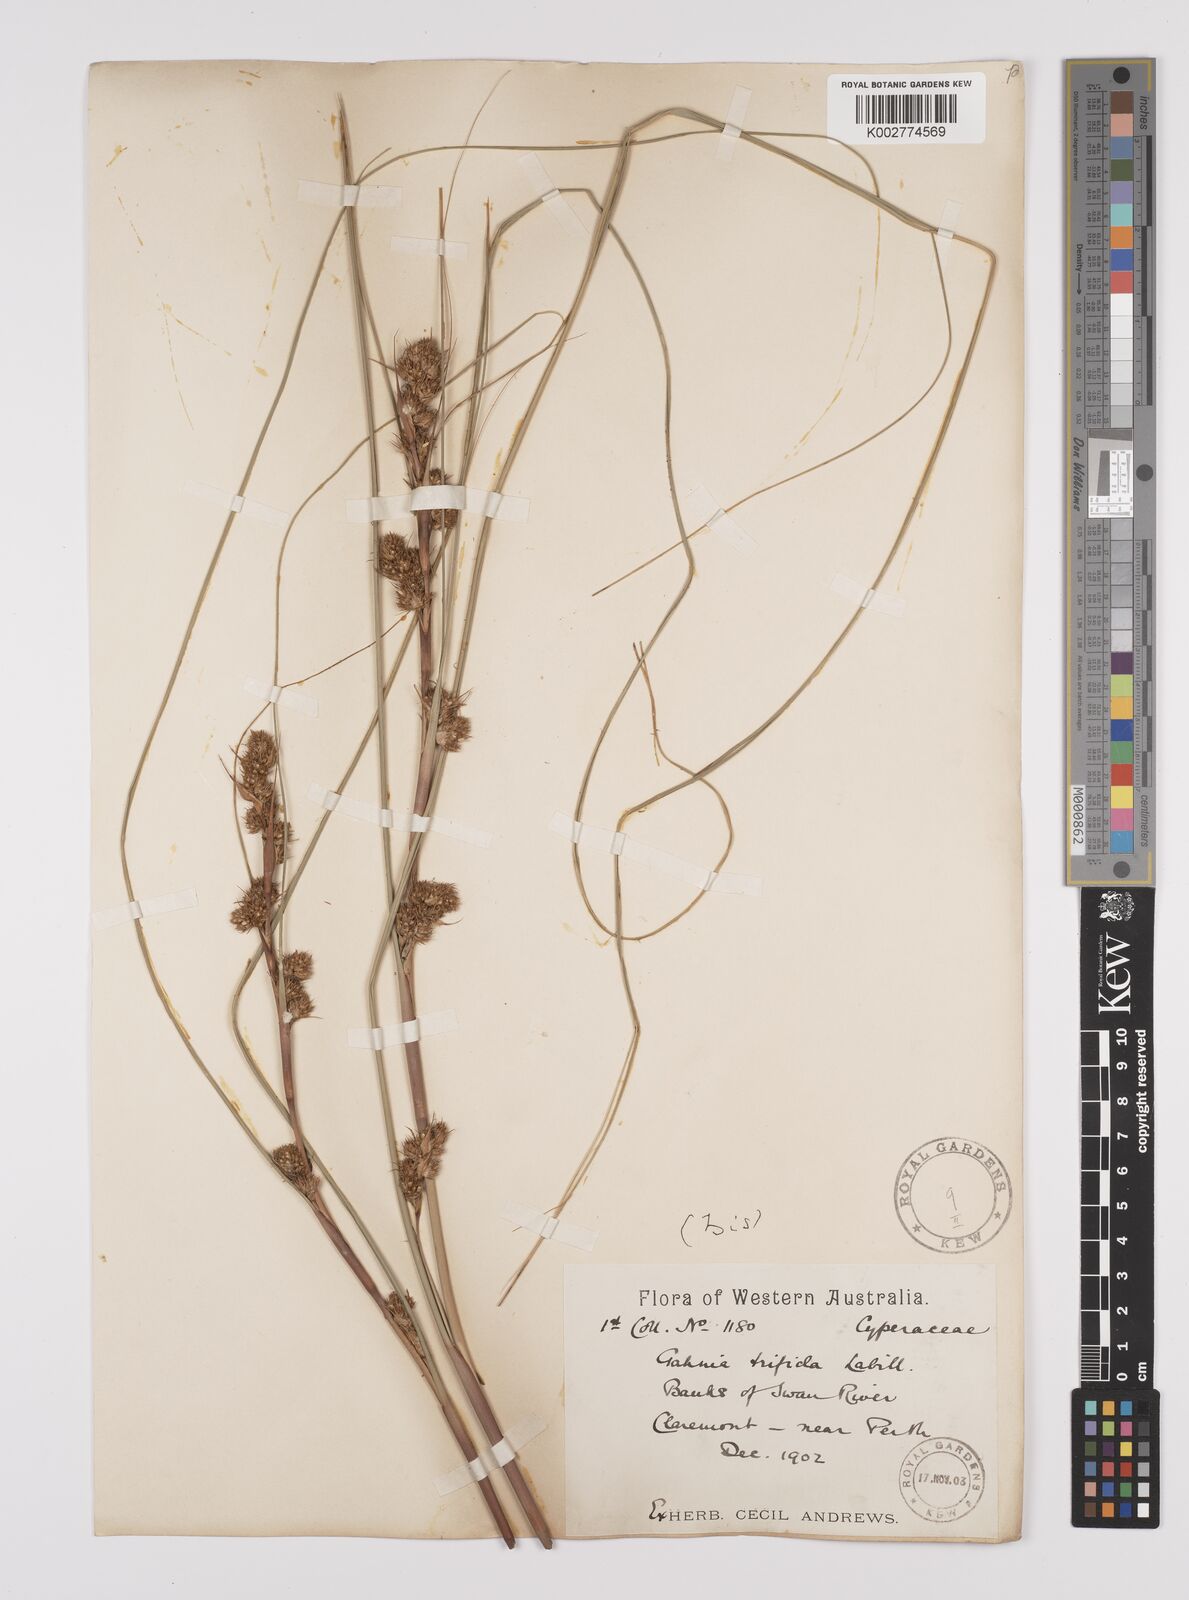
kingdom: Plantae
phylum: Tracheophyta
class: Liliopsida
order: Poales
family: Cyperaceae
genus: Gahnia
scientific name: Gahnia trifida
